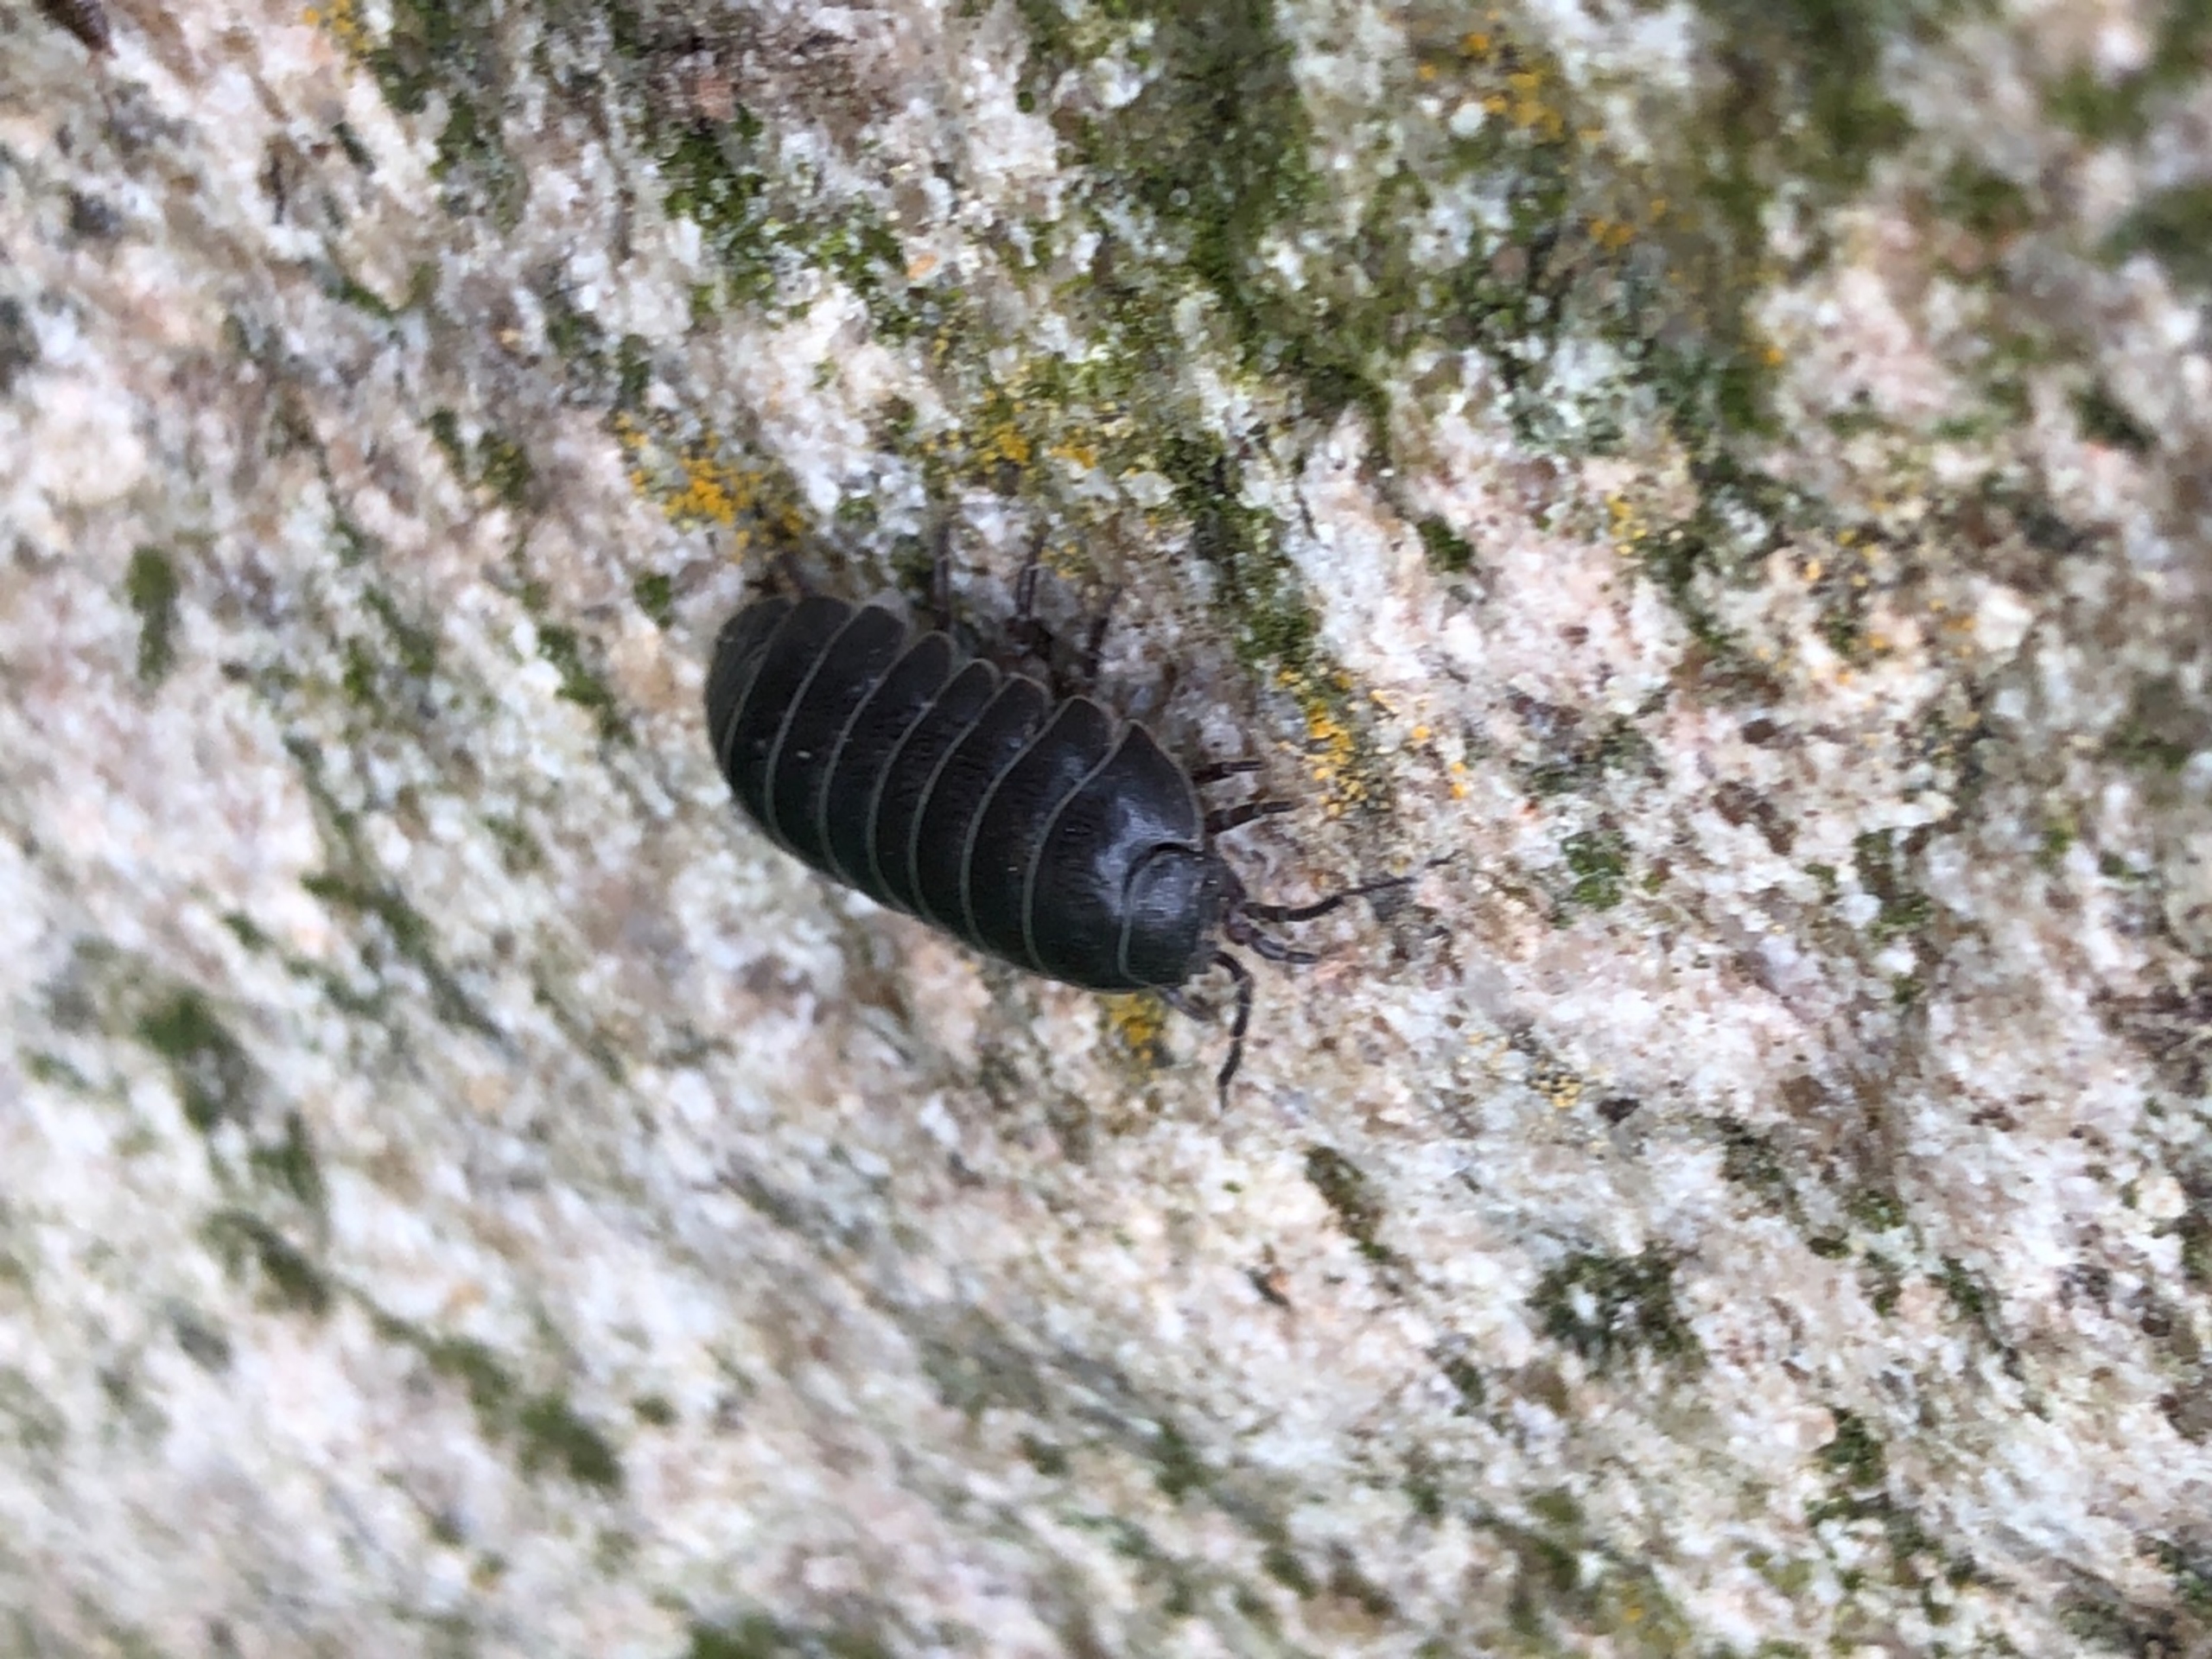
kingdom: Animalia
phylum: Arthropoda
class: Malacostraca
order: Isopoda
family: Armadillidiidae
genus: Armadillidium
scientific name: Armadillidium vulgare
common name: Almindelig kuglebænkebider
